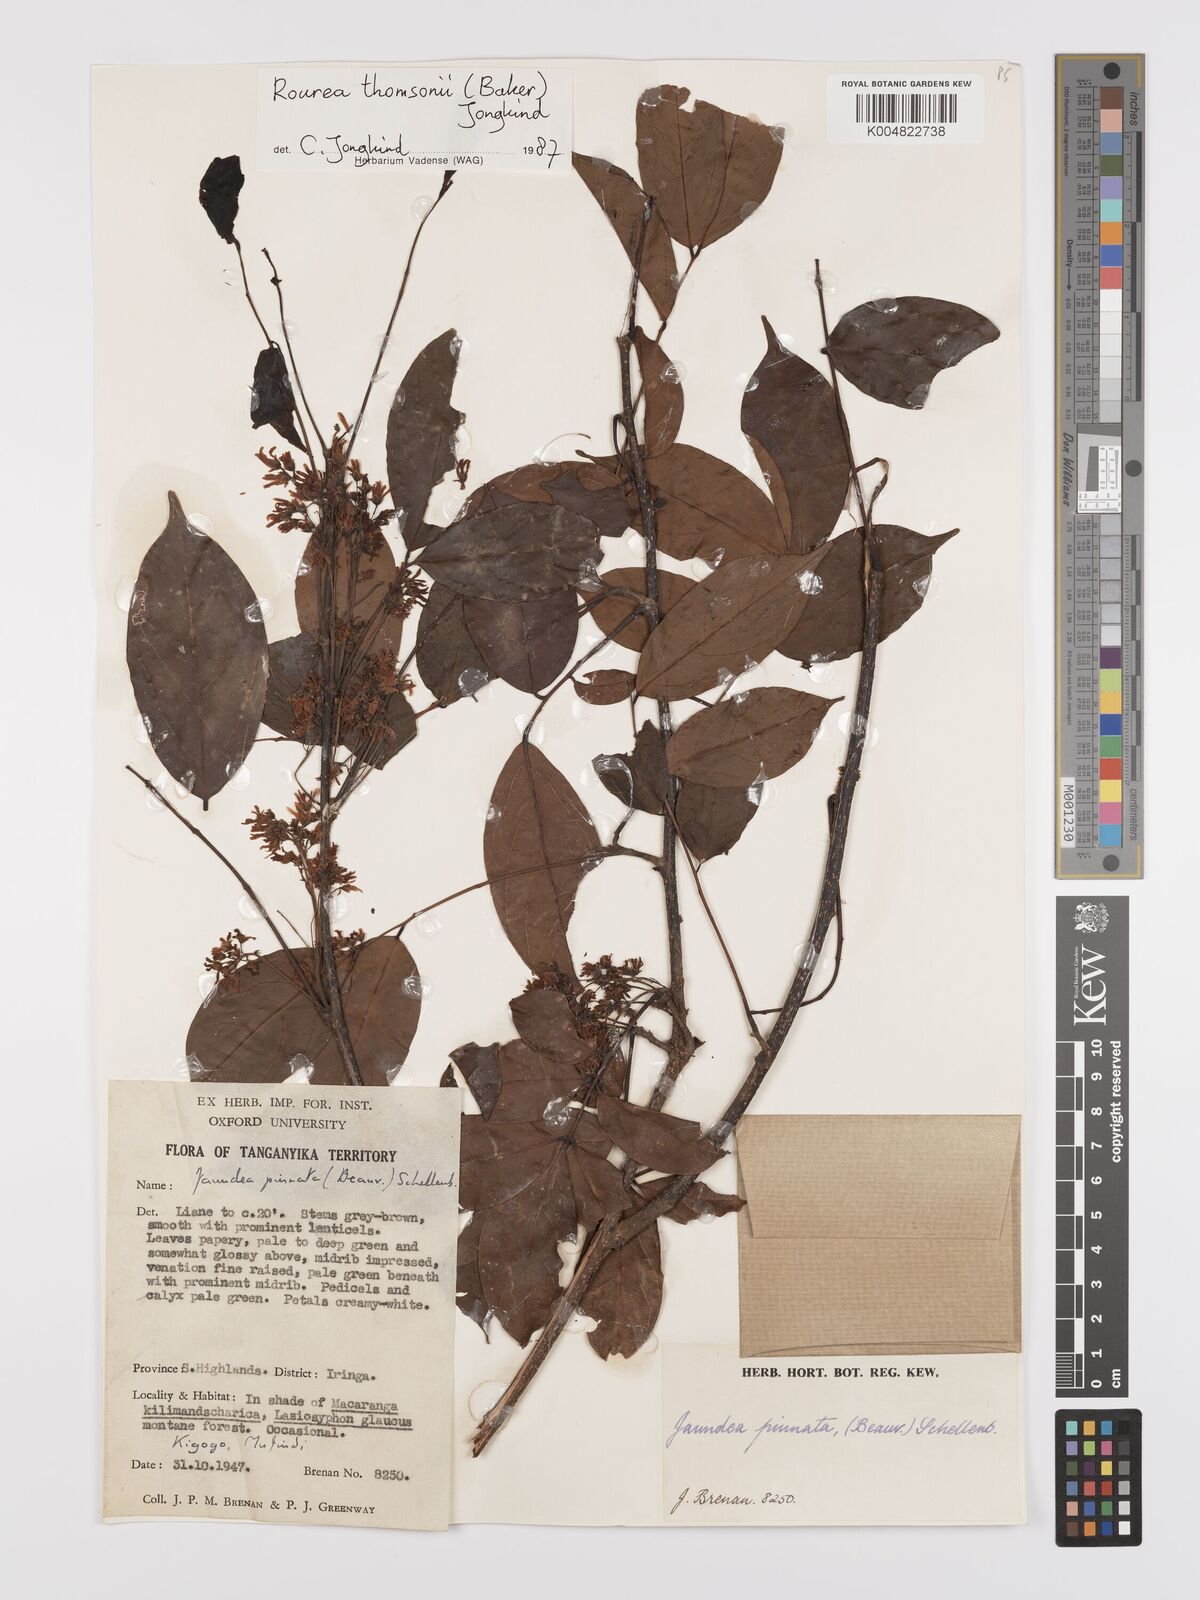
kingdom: Plantae
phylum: Tracheophyta
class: Magnoliopsida
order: Oxalidales
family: Connaraceae
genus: Rourea
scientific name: Rourea pinnata
